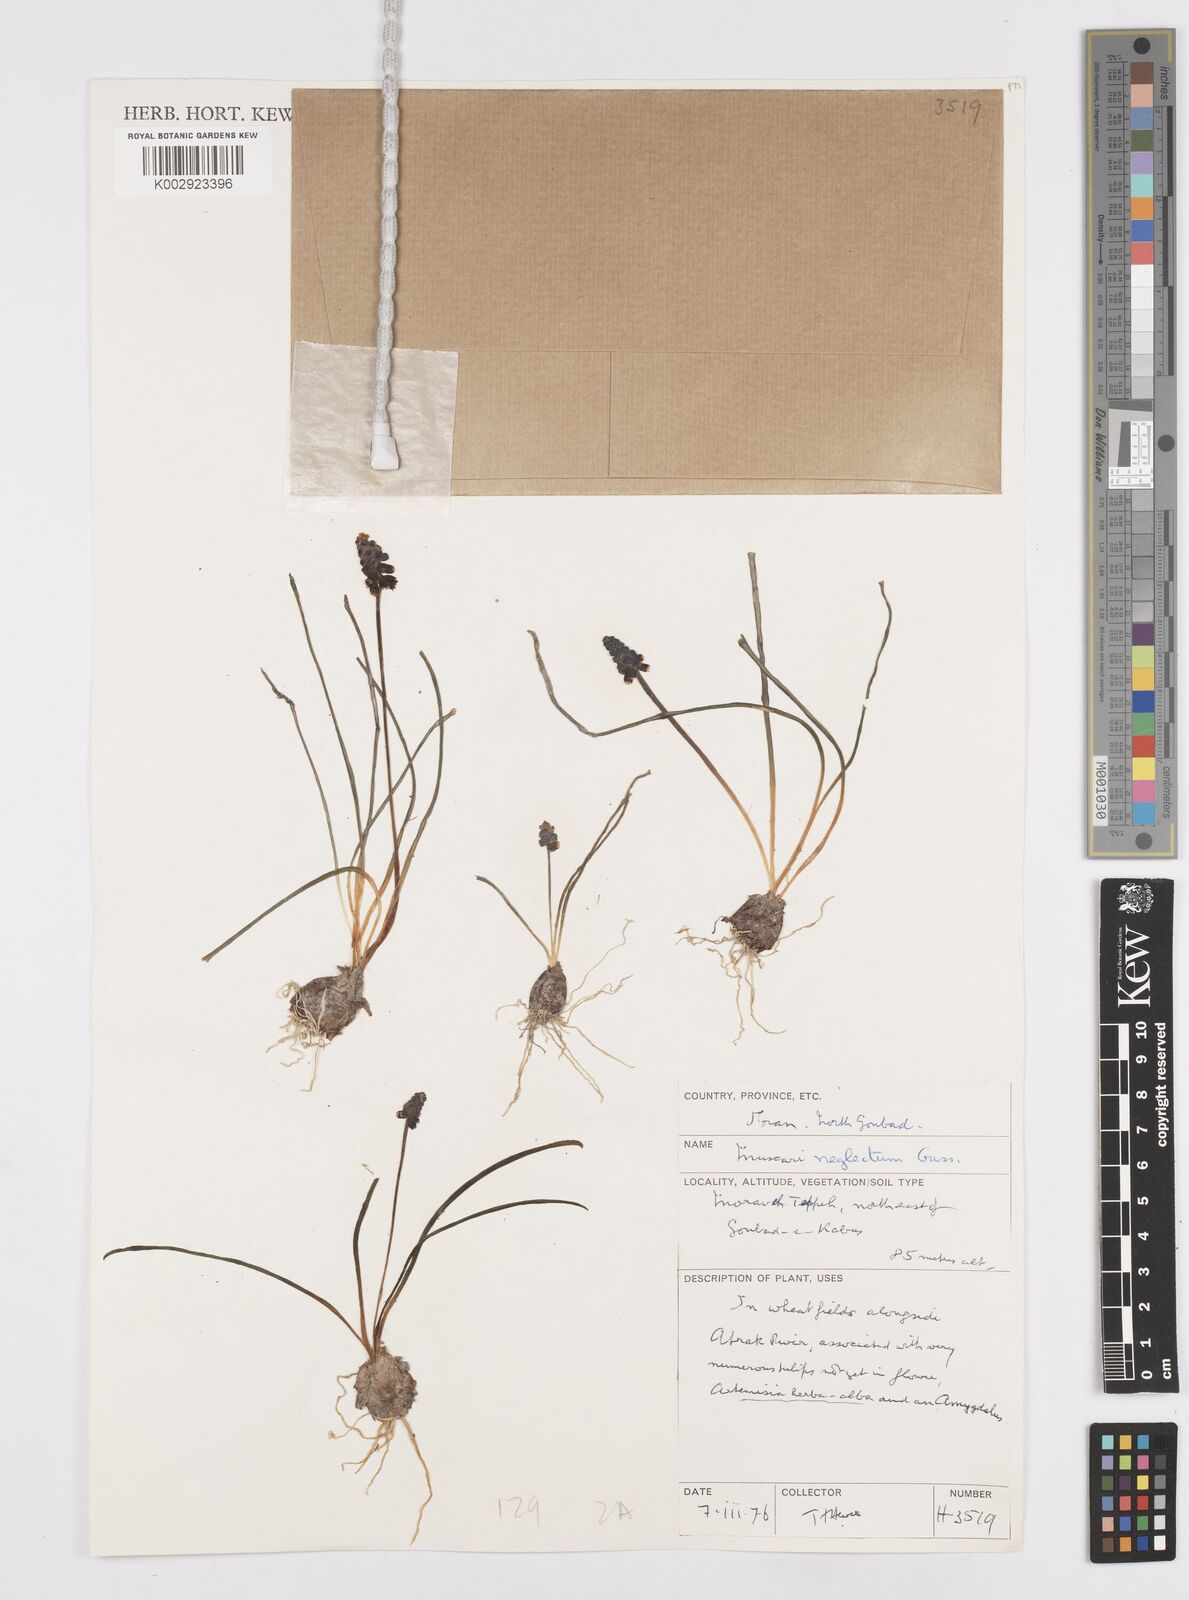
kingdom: Plantae
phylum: Tracheophyta
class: Liliopsida
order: Asparagales
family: Asparagaceae
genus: Muscari
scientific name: Muscari neglectum
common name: Grape-hyacinth
